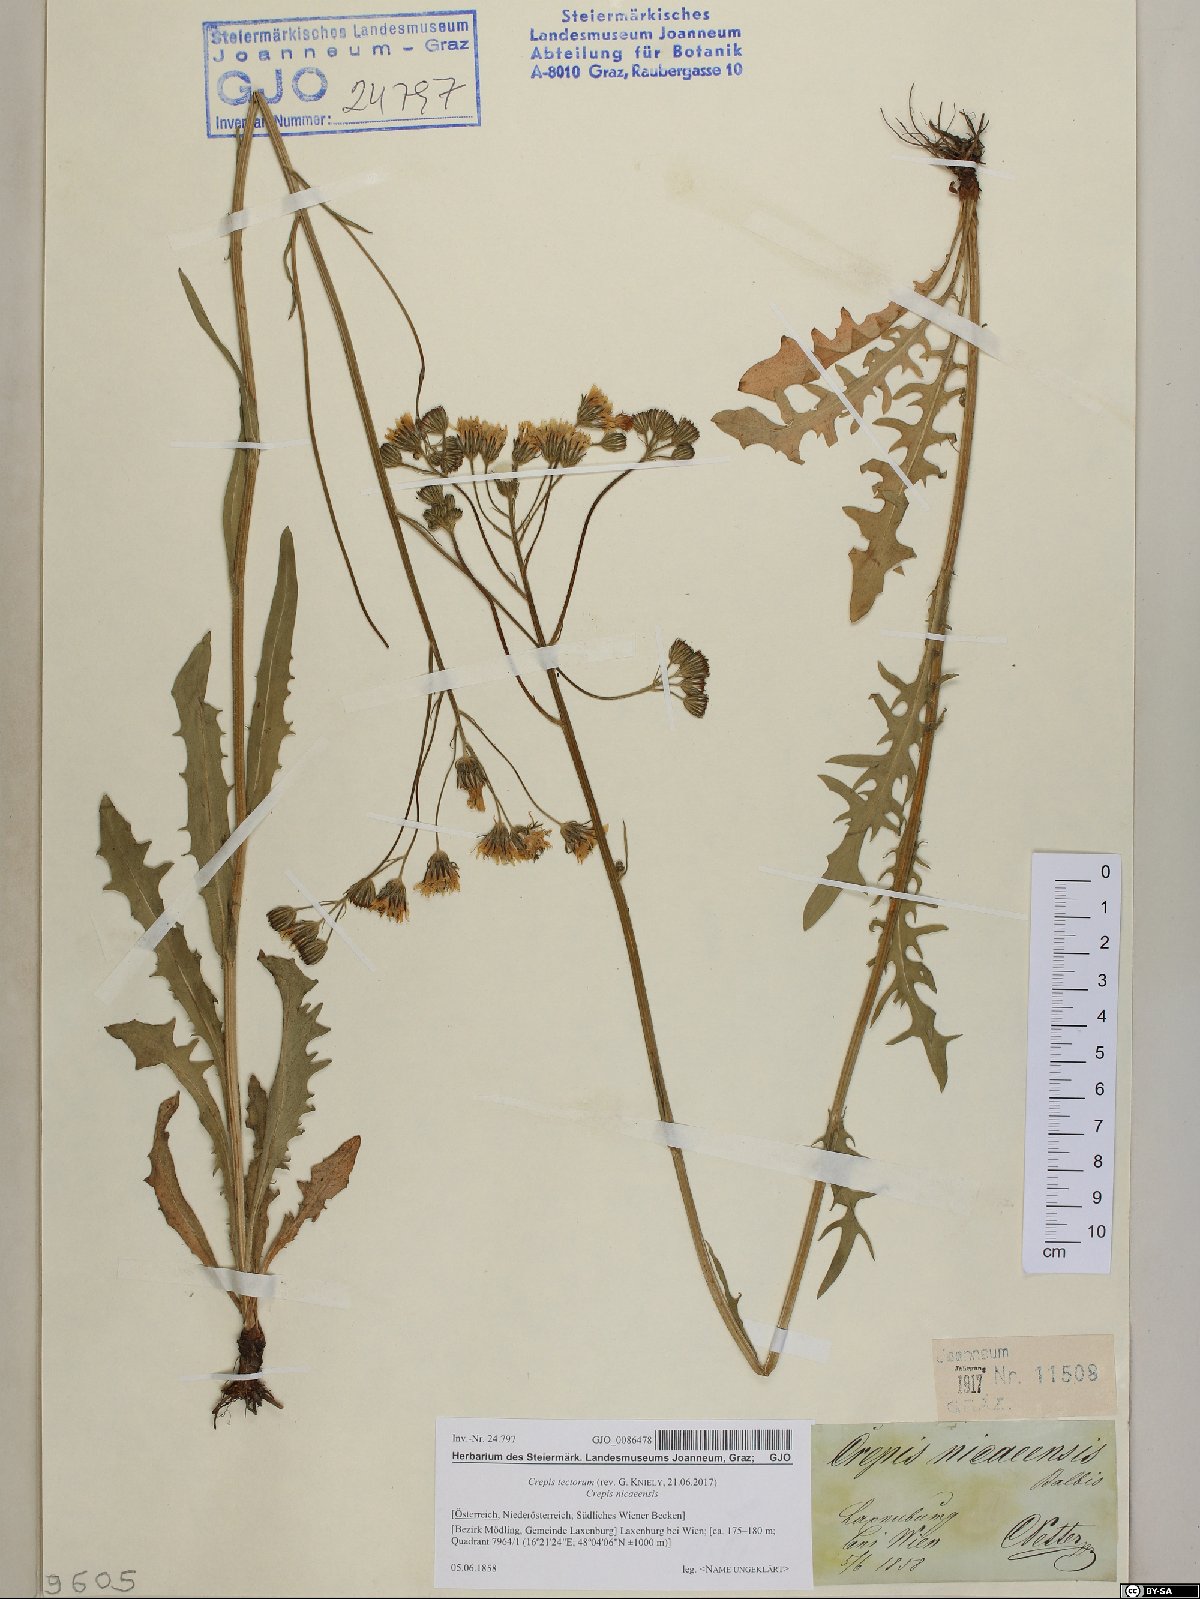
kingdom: Plantae
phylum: Tracheophyta
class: Magnoliopsida
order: Asterales
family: Asteraceae
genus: Crepis
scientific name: Crepis tectorum
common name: Narrow-leaved hawk's-beard
